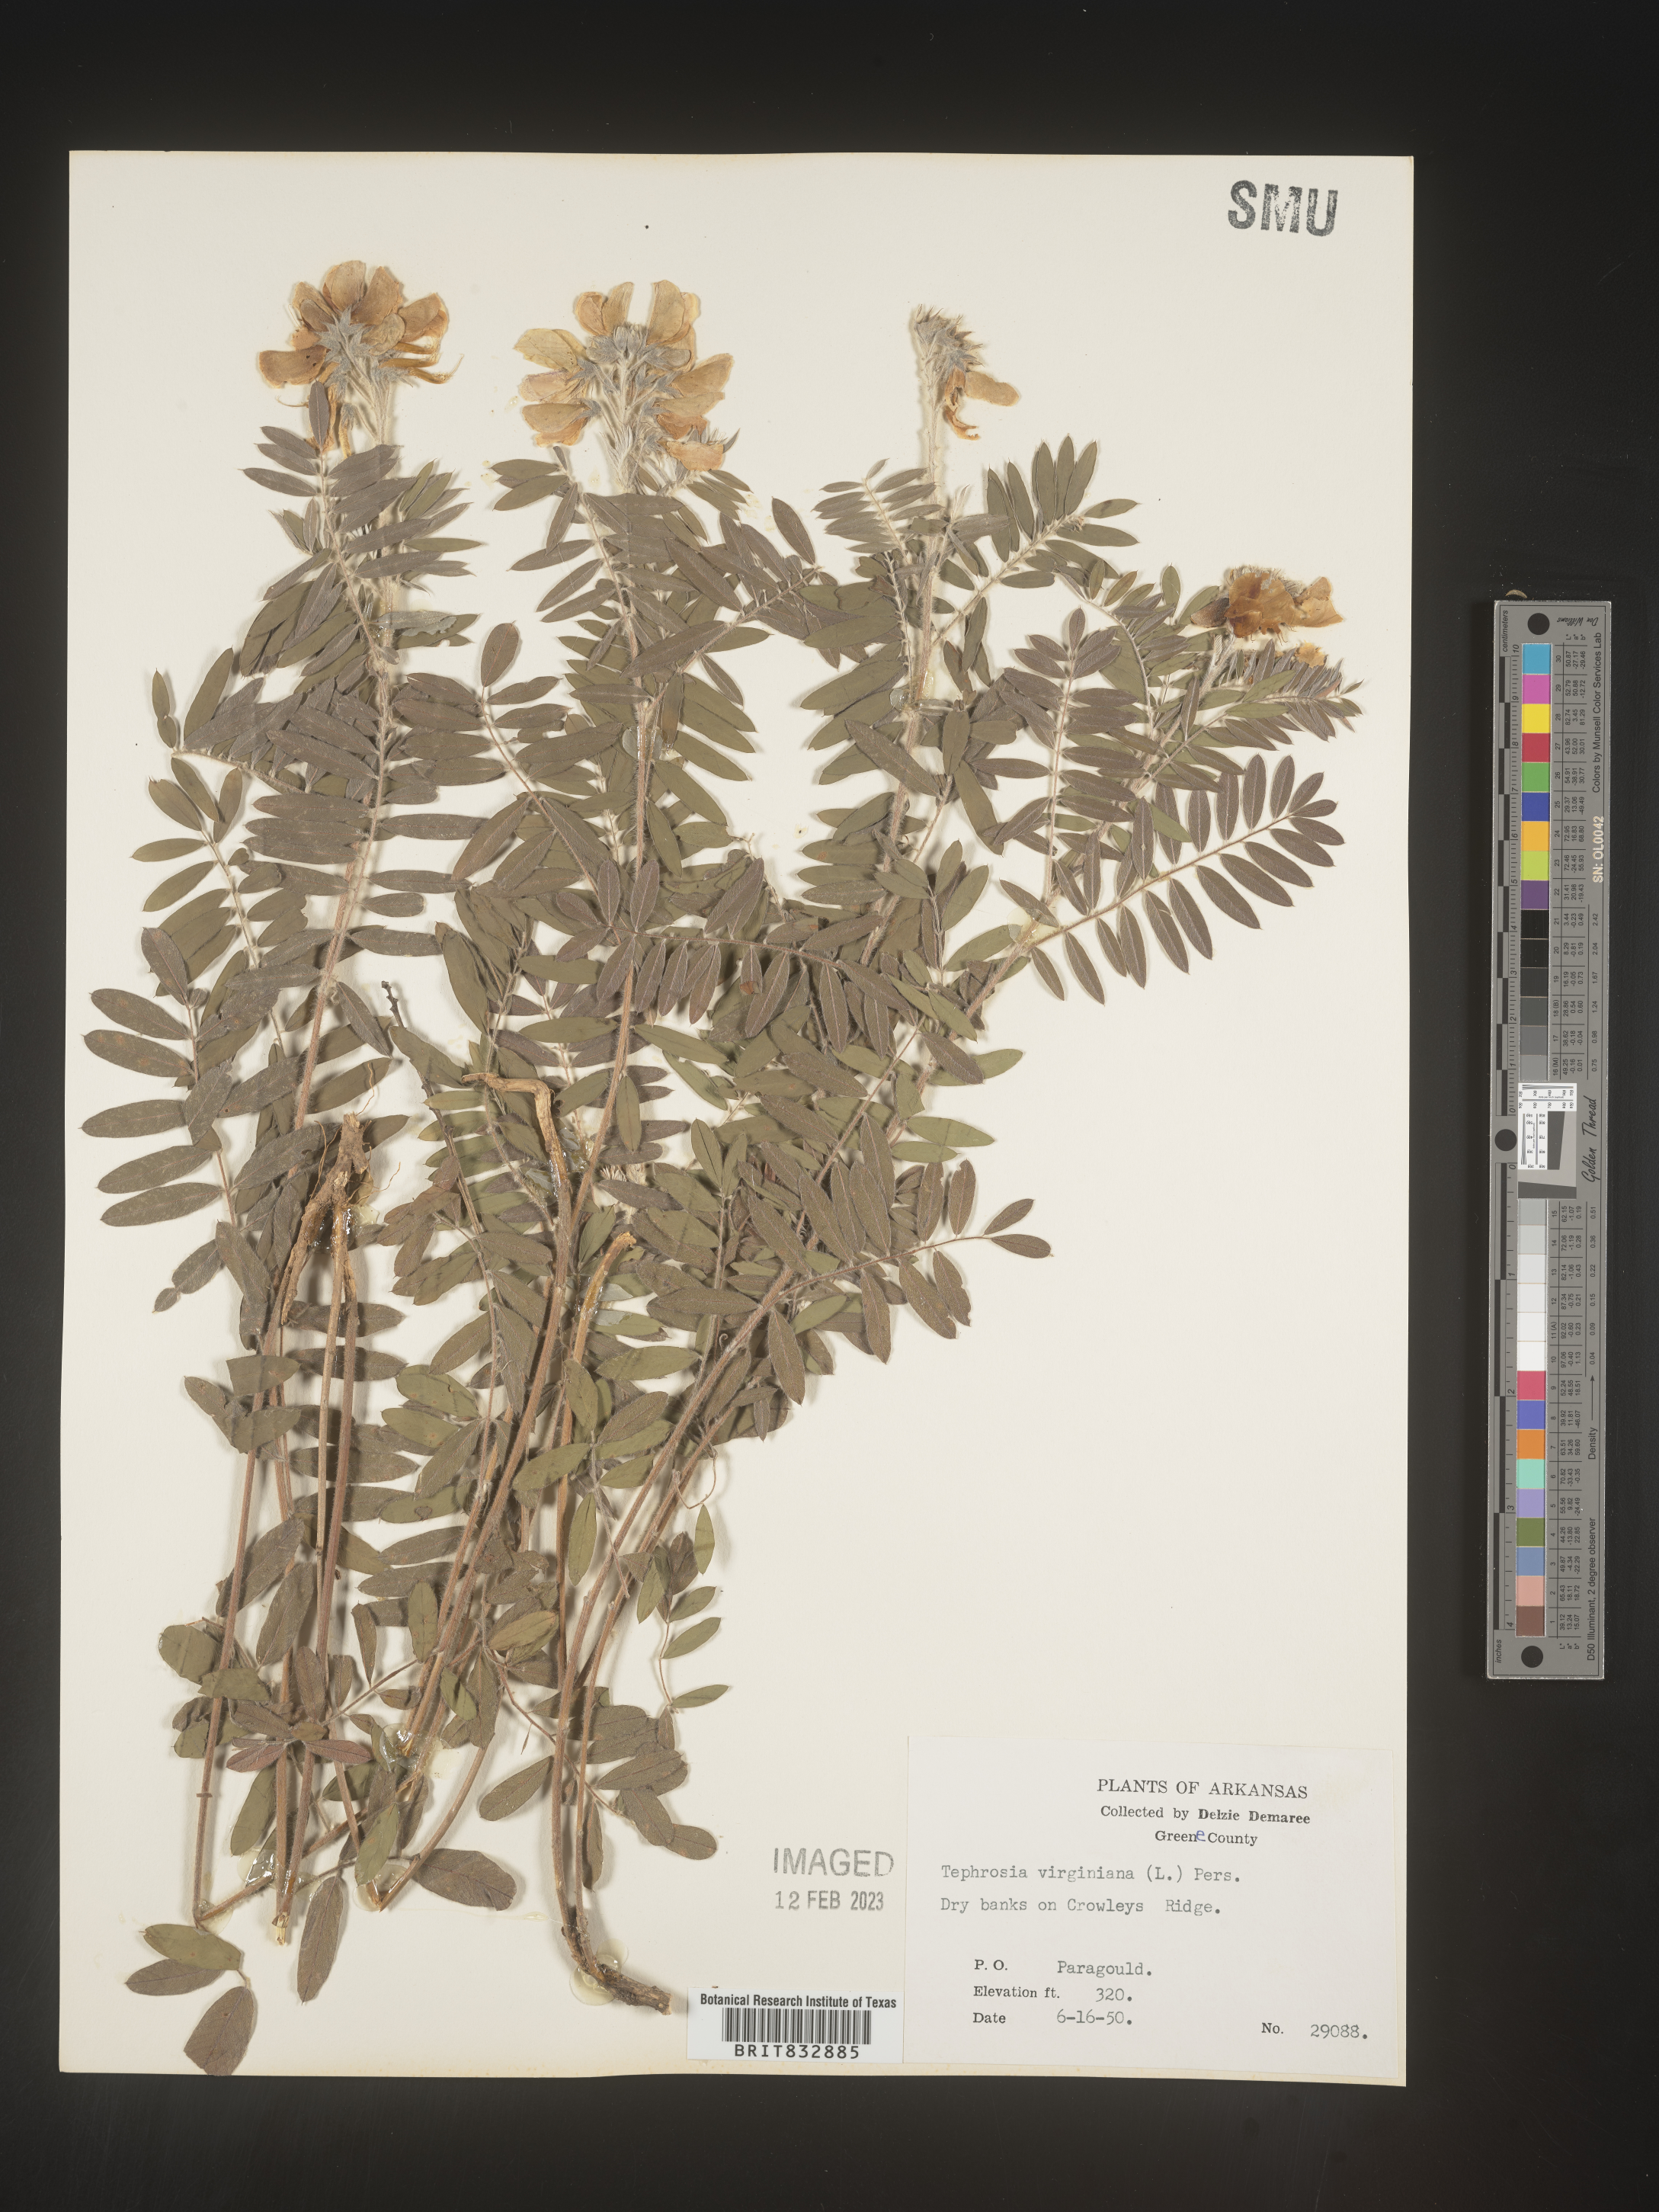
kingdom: Plantae
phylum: Tracheophyta
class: Magnoliopsida
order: Fabales
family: Fabaceae
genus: Tephrosia
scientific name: Tephrosia virginiana
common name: Rabbit-pea
